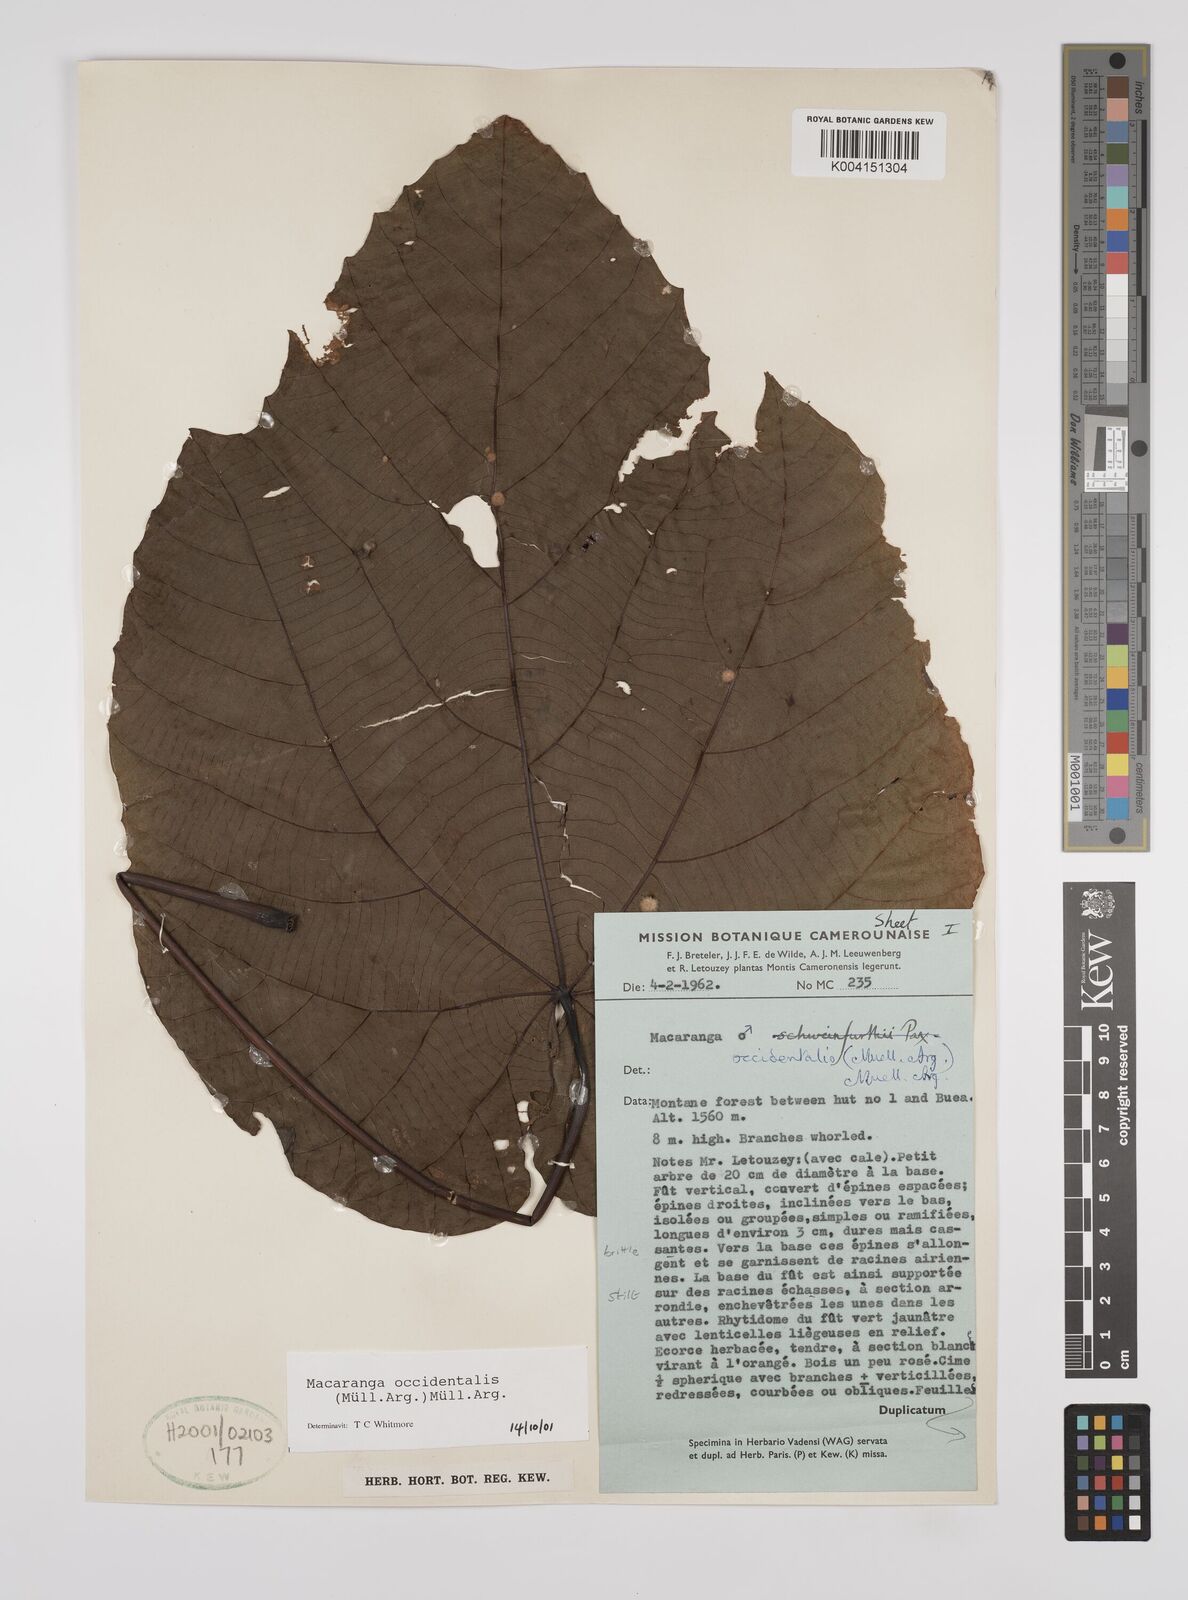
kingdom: Plantae
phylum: Tracheophyta
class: Magnoliopsida
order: Malpighiales
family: Euphorbiaceae
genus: Macaranga
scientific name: Macaranga occidentalis
